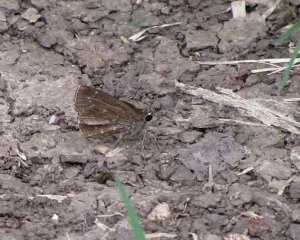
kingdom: Animalia
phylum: Arthropoda
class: Insecta
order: Lepidoptera
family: Hesperiidae
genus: Mastor
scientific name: Mastor celia
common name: Celia's Roadside-Skipper
